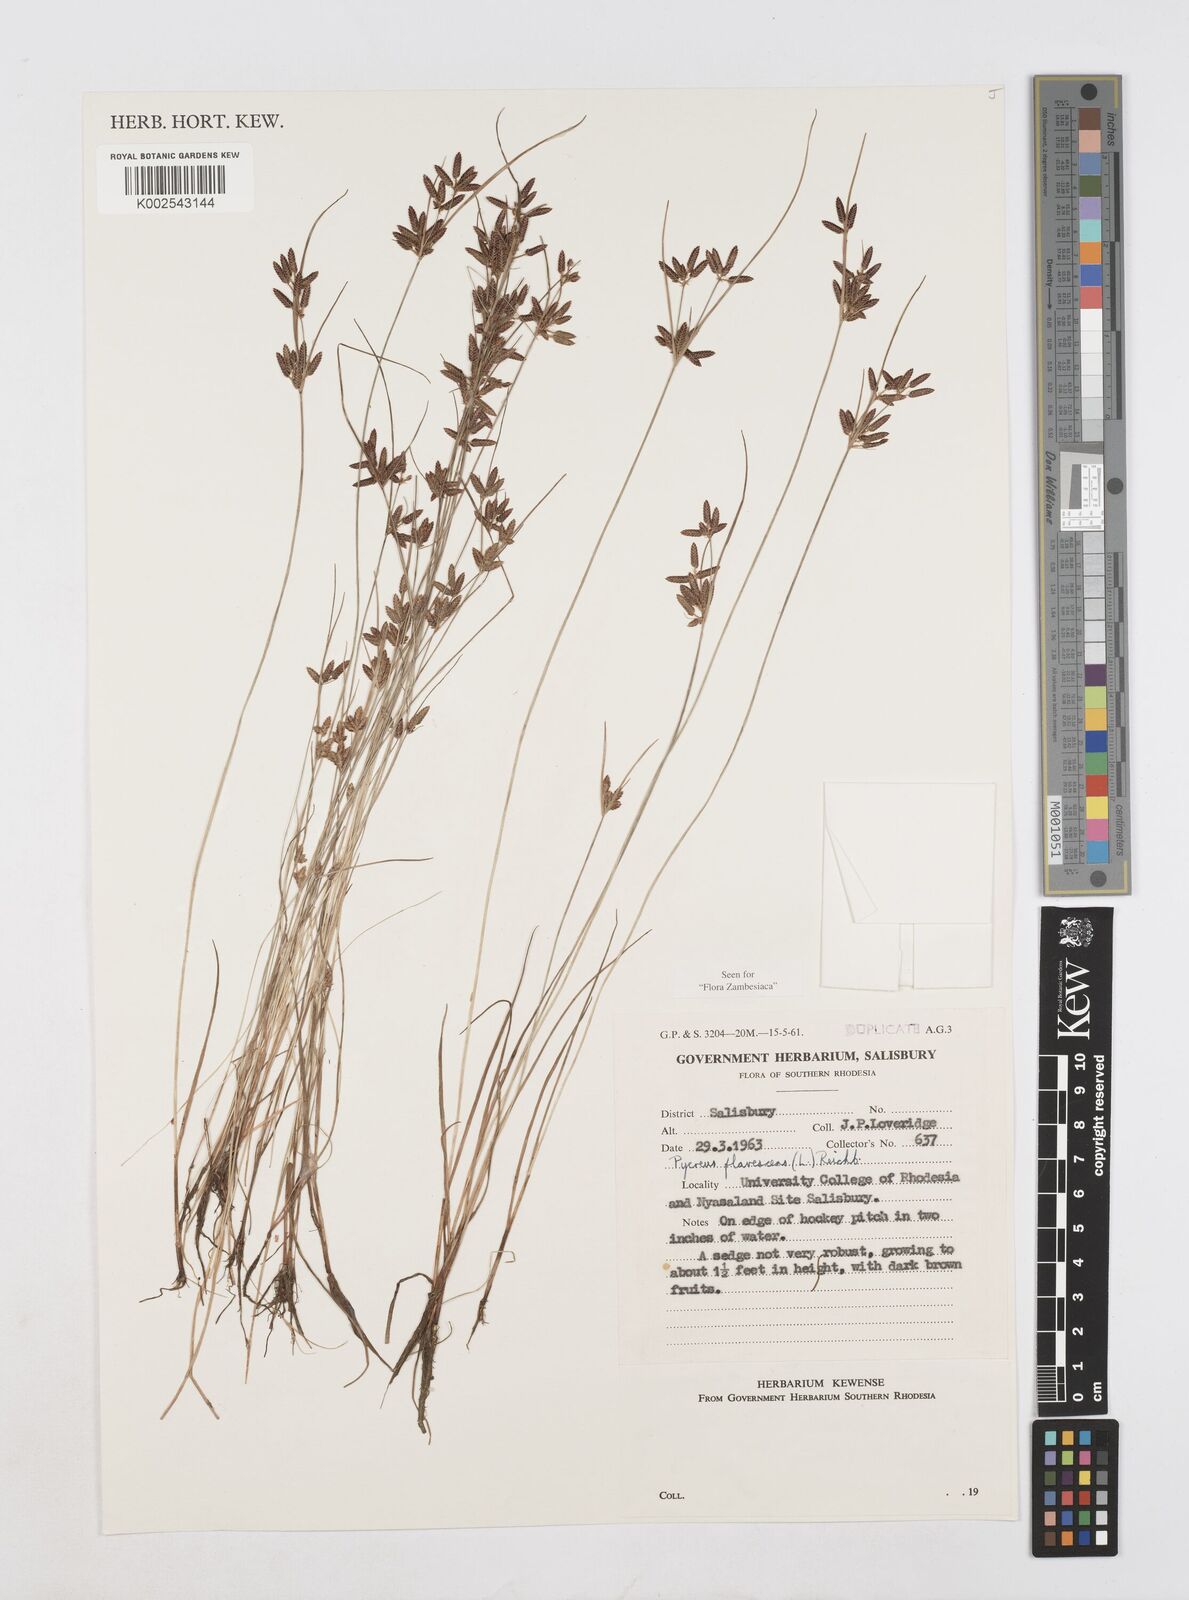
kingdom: Plantae
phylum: Tracheophyta
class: Liliopsida
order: Poales
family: Cyperaceae
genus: Cyperus
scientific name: Cyperus flavescens
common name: Yellow galingale
